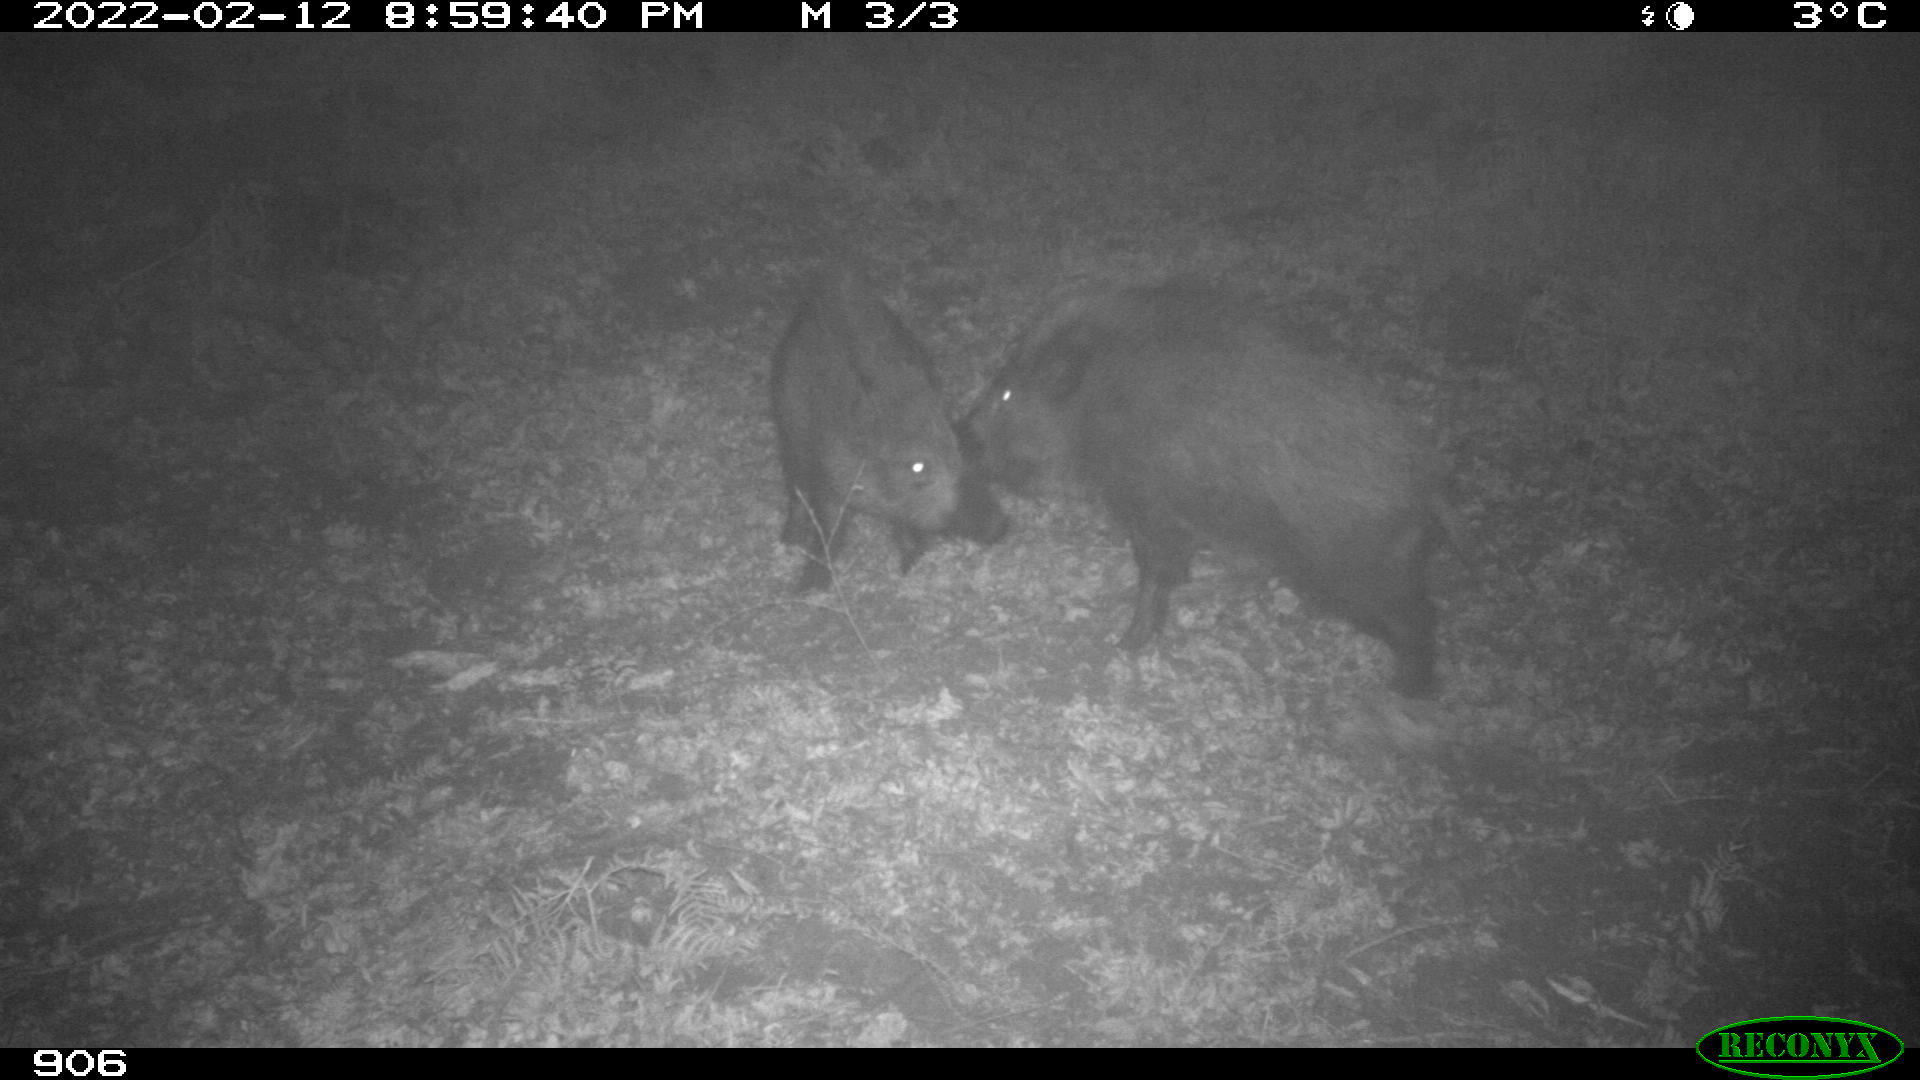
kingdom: Animalia
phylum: Chordata
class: Mammalia
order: Artiodactyla
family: Suidae
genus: Sus
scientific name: Sus scrofa
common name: Wild boar
